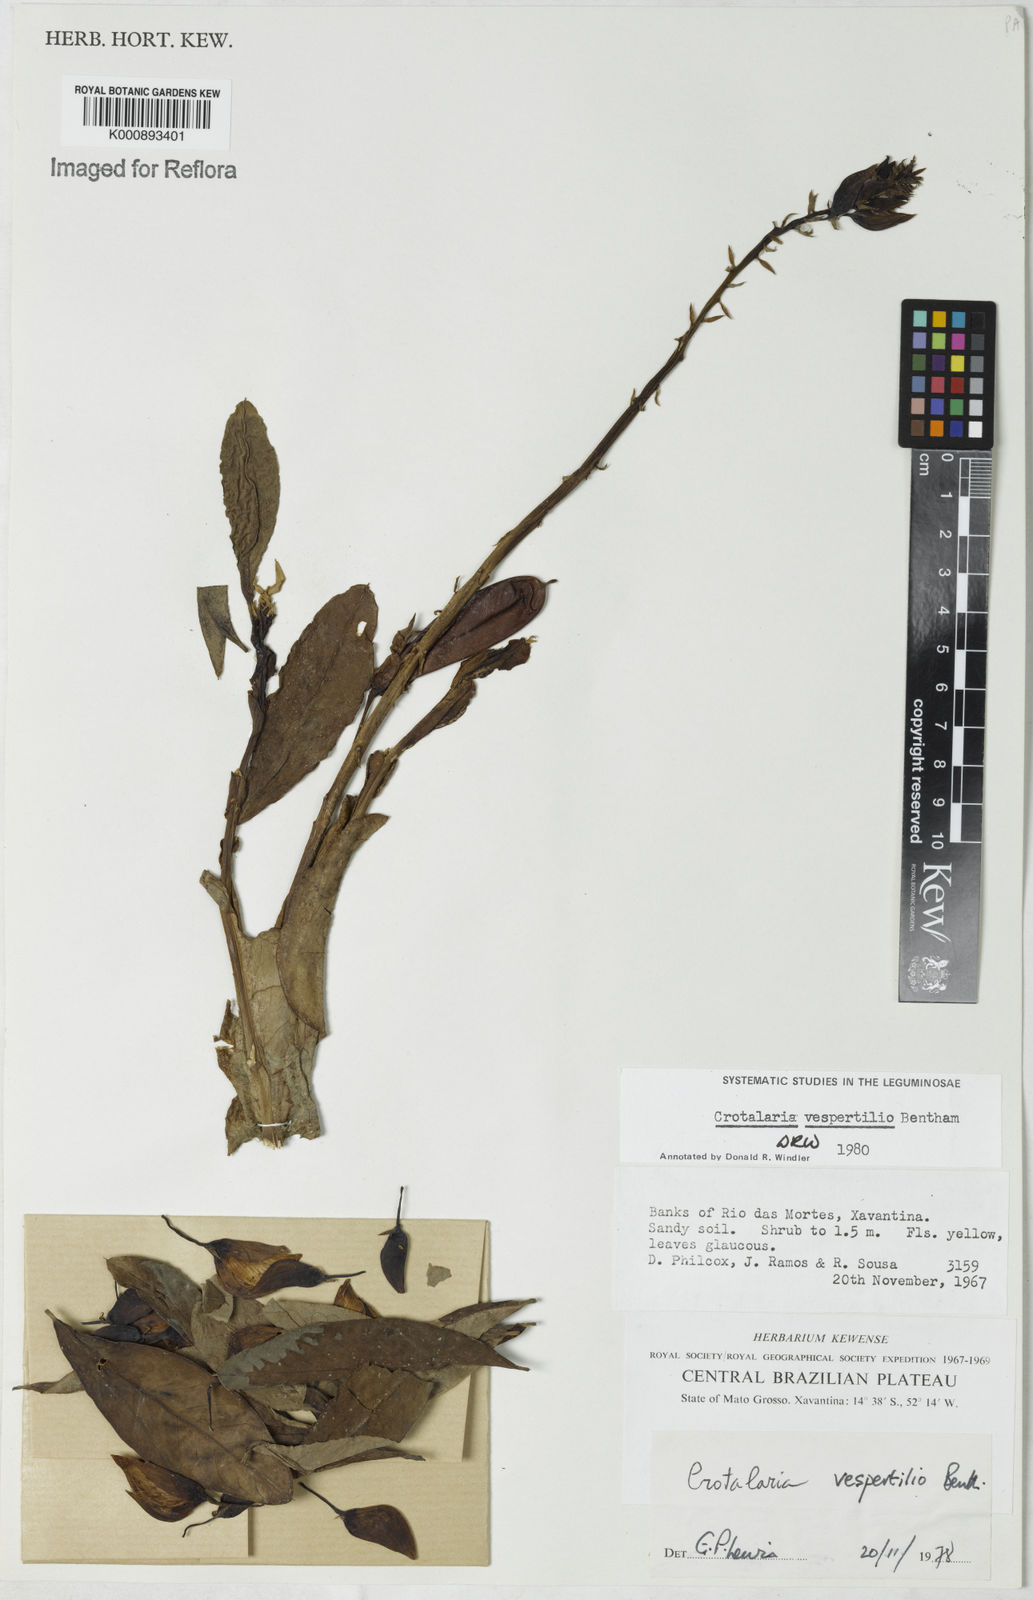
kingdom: Plantae
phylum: Tracheophyta
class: Magnoliopsida
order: Fabales
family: Fabaceae
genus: Crotalaria
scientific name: Crotalaria vespertilio
